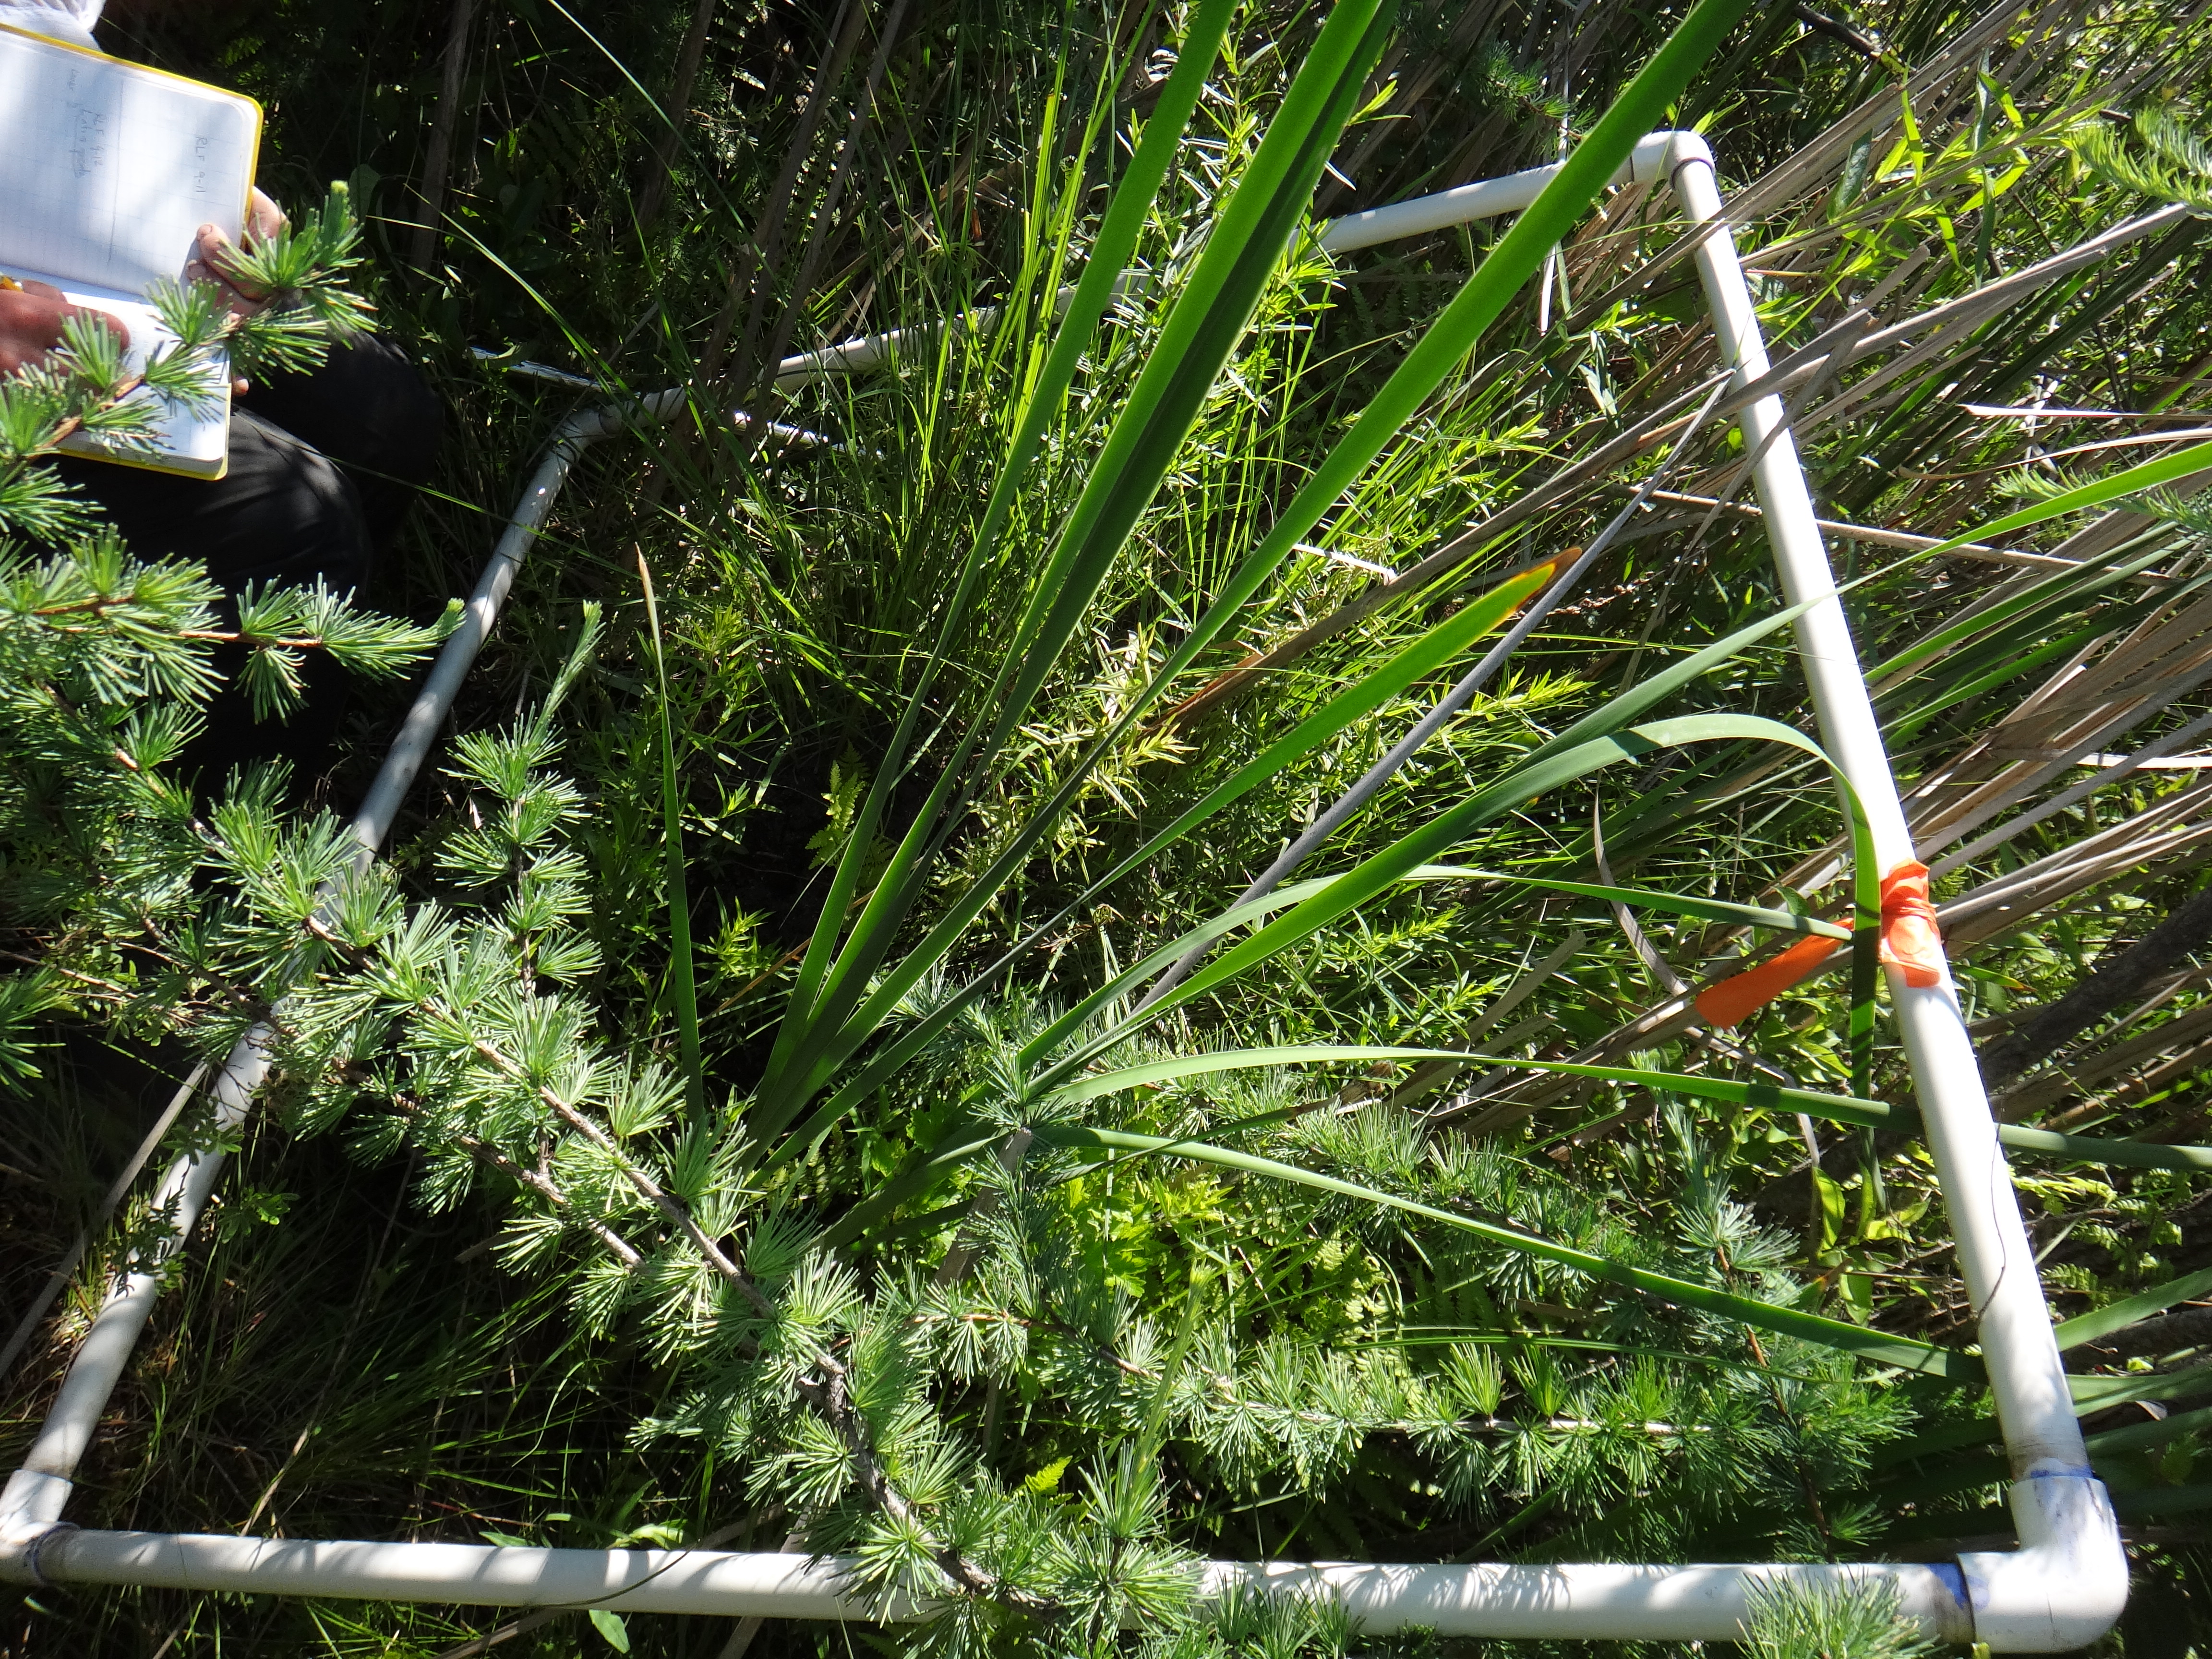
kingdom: Plantae
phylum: Tracheophyta
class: Magnoliopsida
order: Asterales
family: Asteraceae
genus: Cirsium
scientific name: Cirsium muticum
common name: Dunce-nettle
